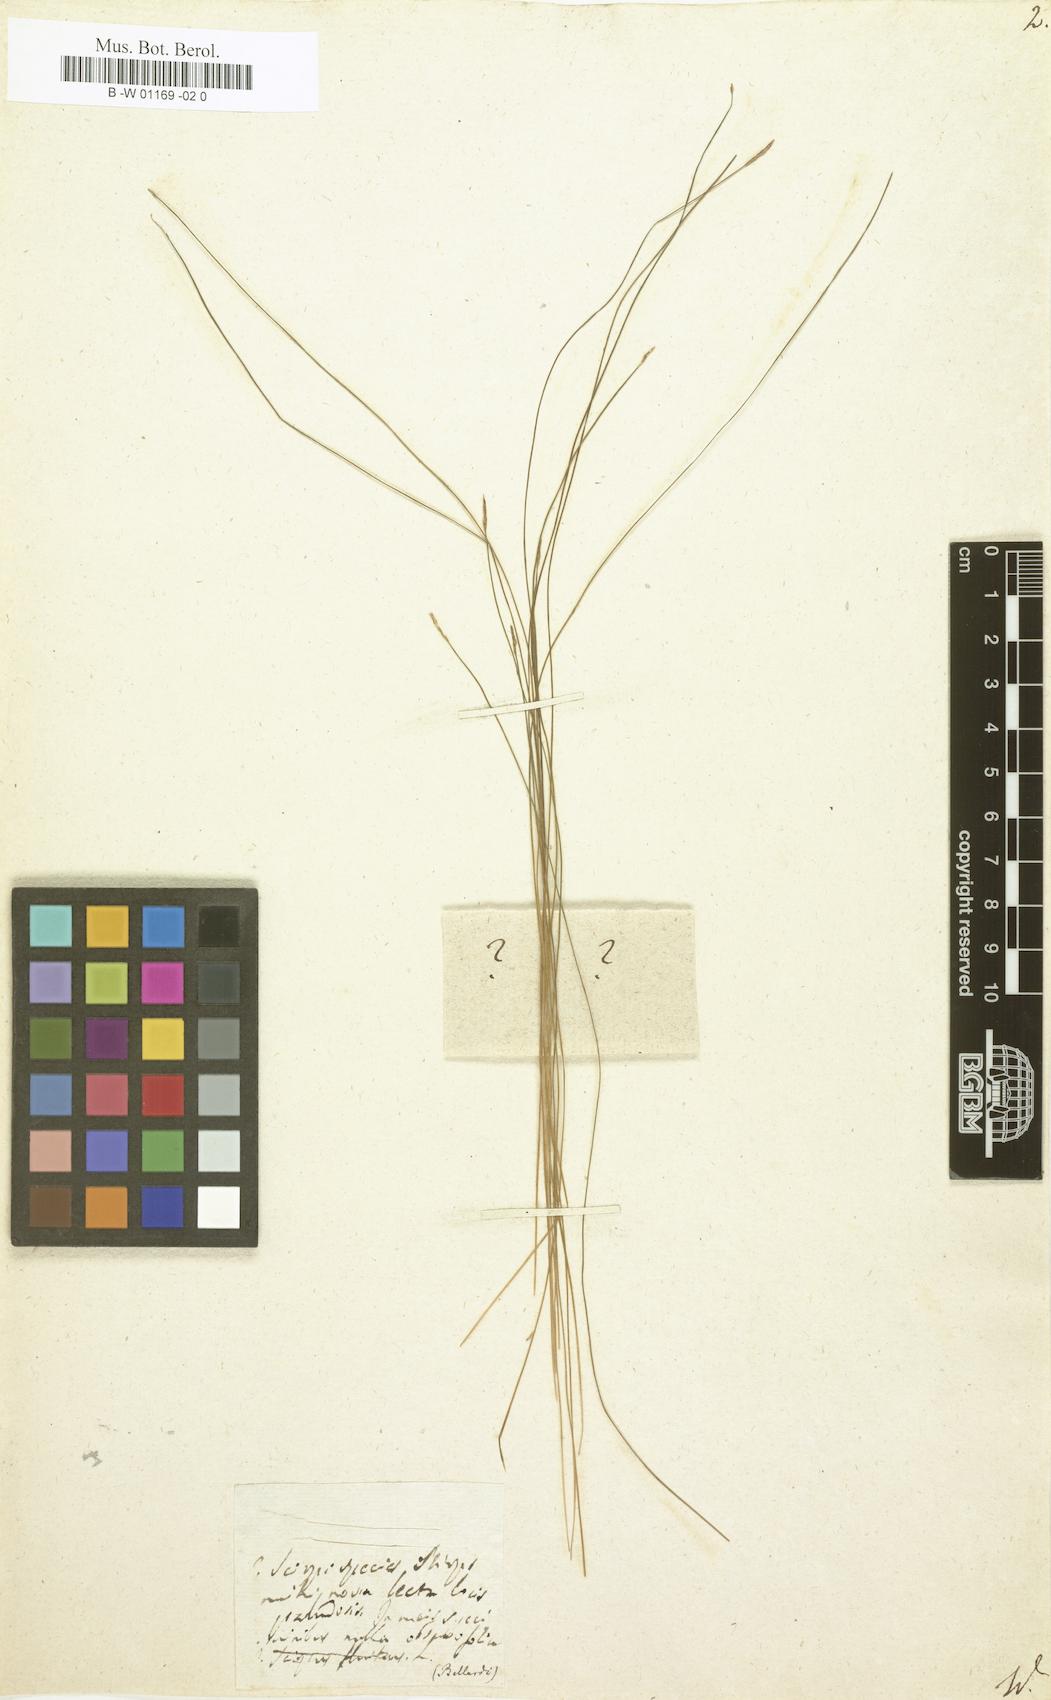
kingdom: Plantae
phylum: Tracheophyta
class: Liliopsida
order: Poales
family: Cyperaceae
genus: Scirpus
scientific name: Scirpus
